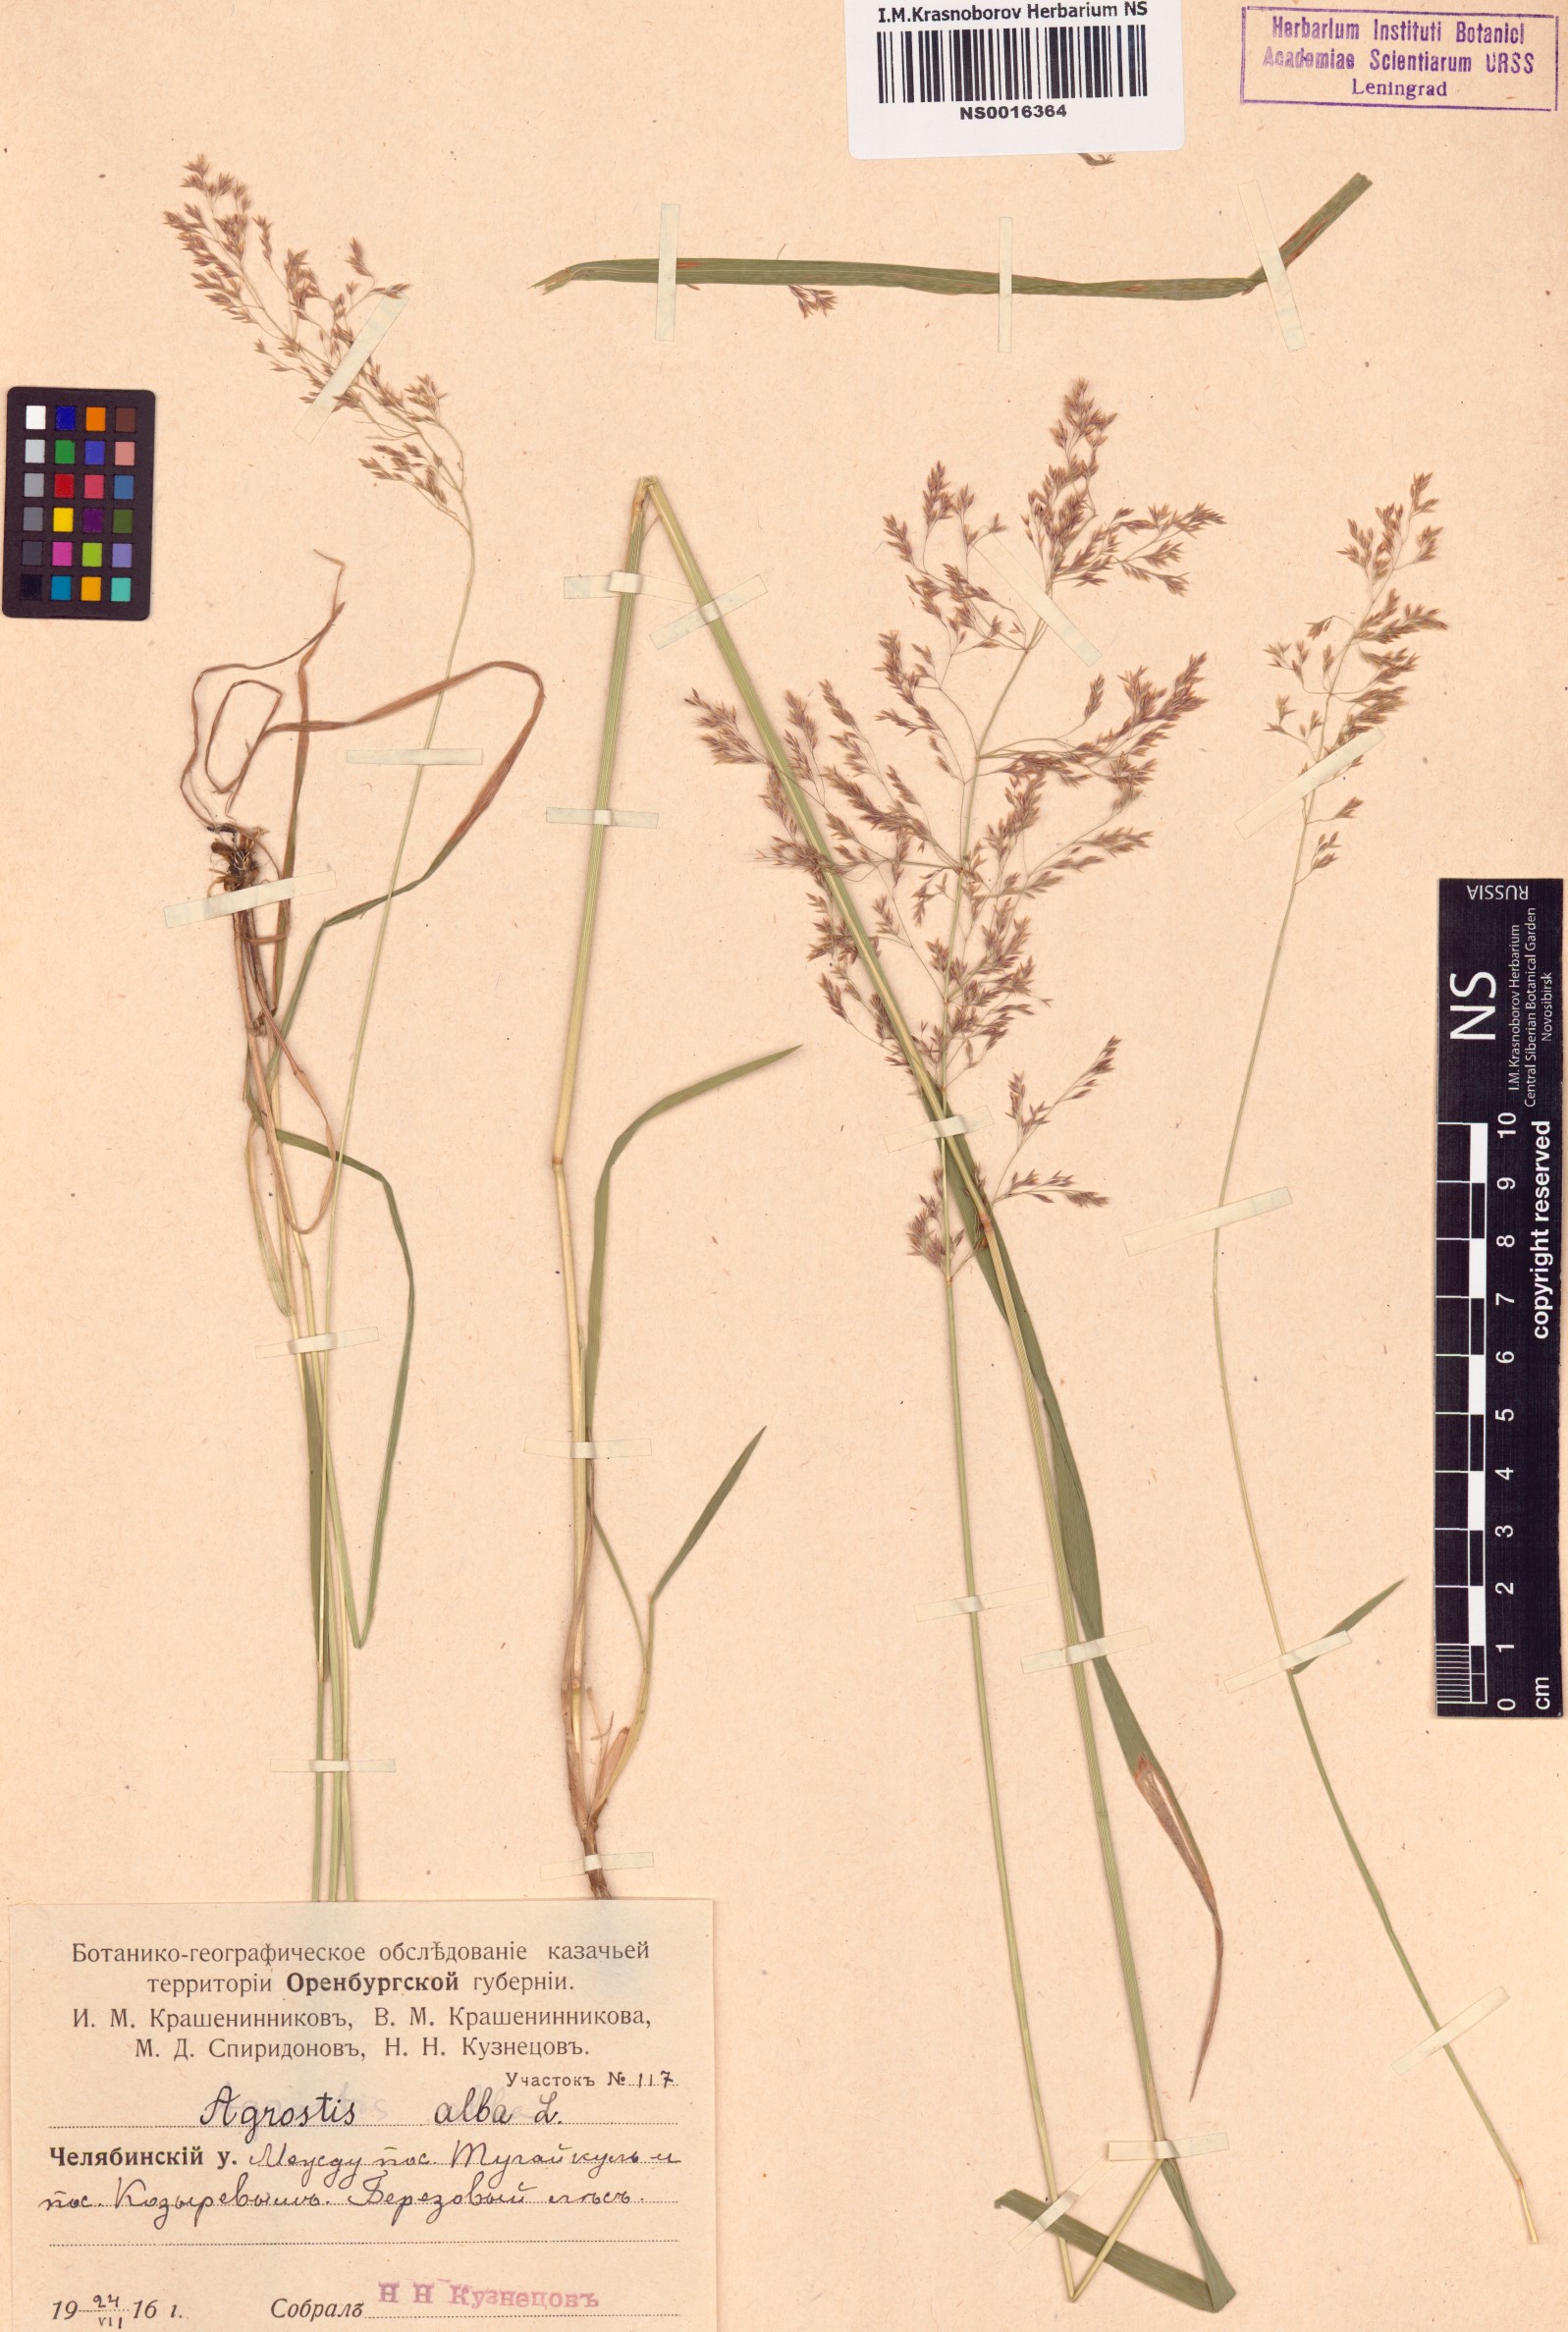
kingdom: Plantae
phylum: Tracheophyta
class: Liliopsida
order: Poales
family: Poaceae
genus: Poa
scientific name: Poa nemoralis
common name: Wood bluegrass
